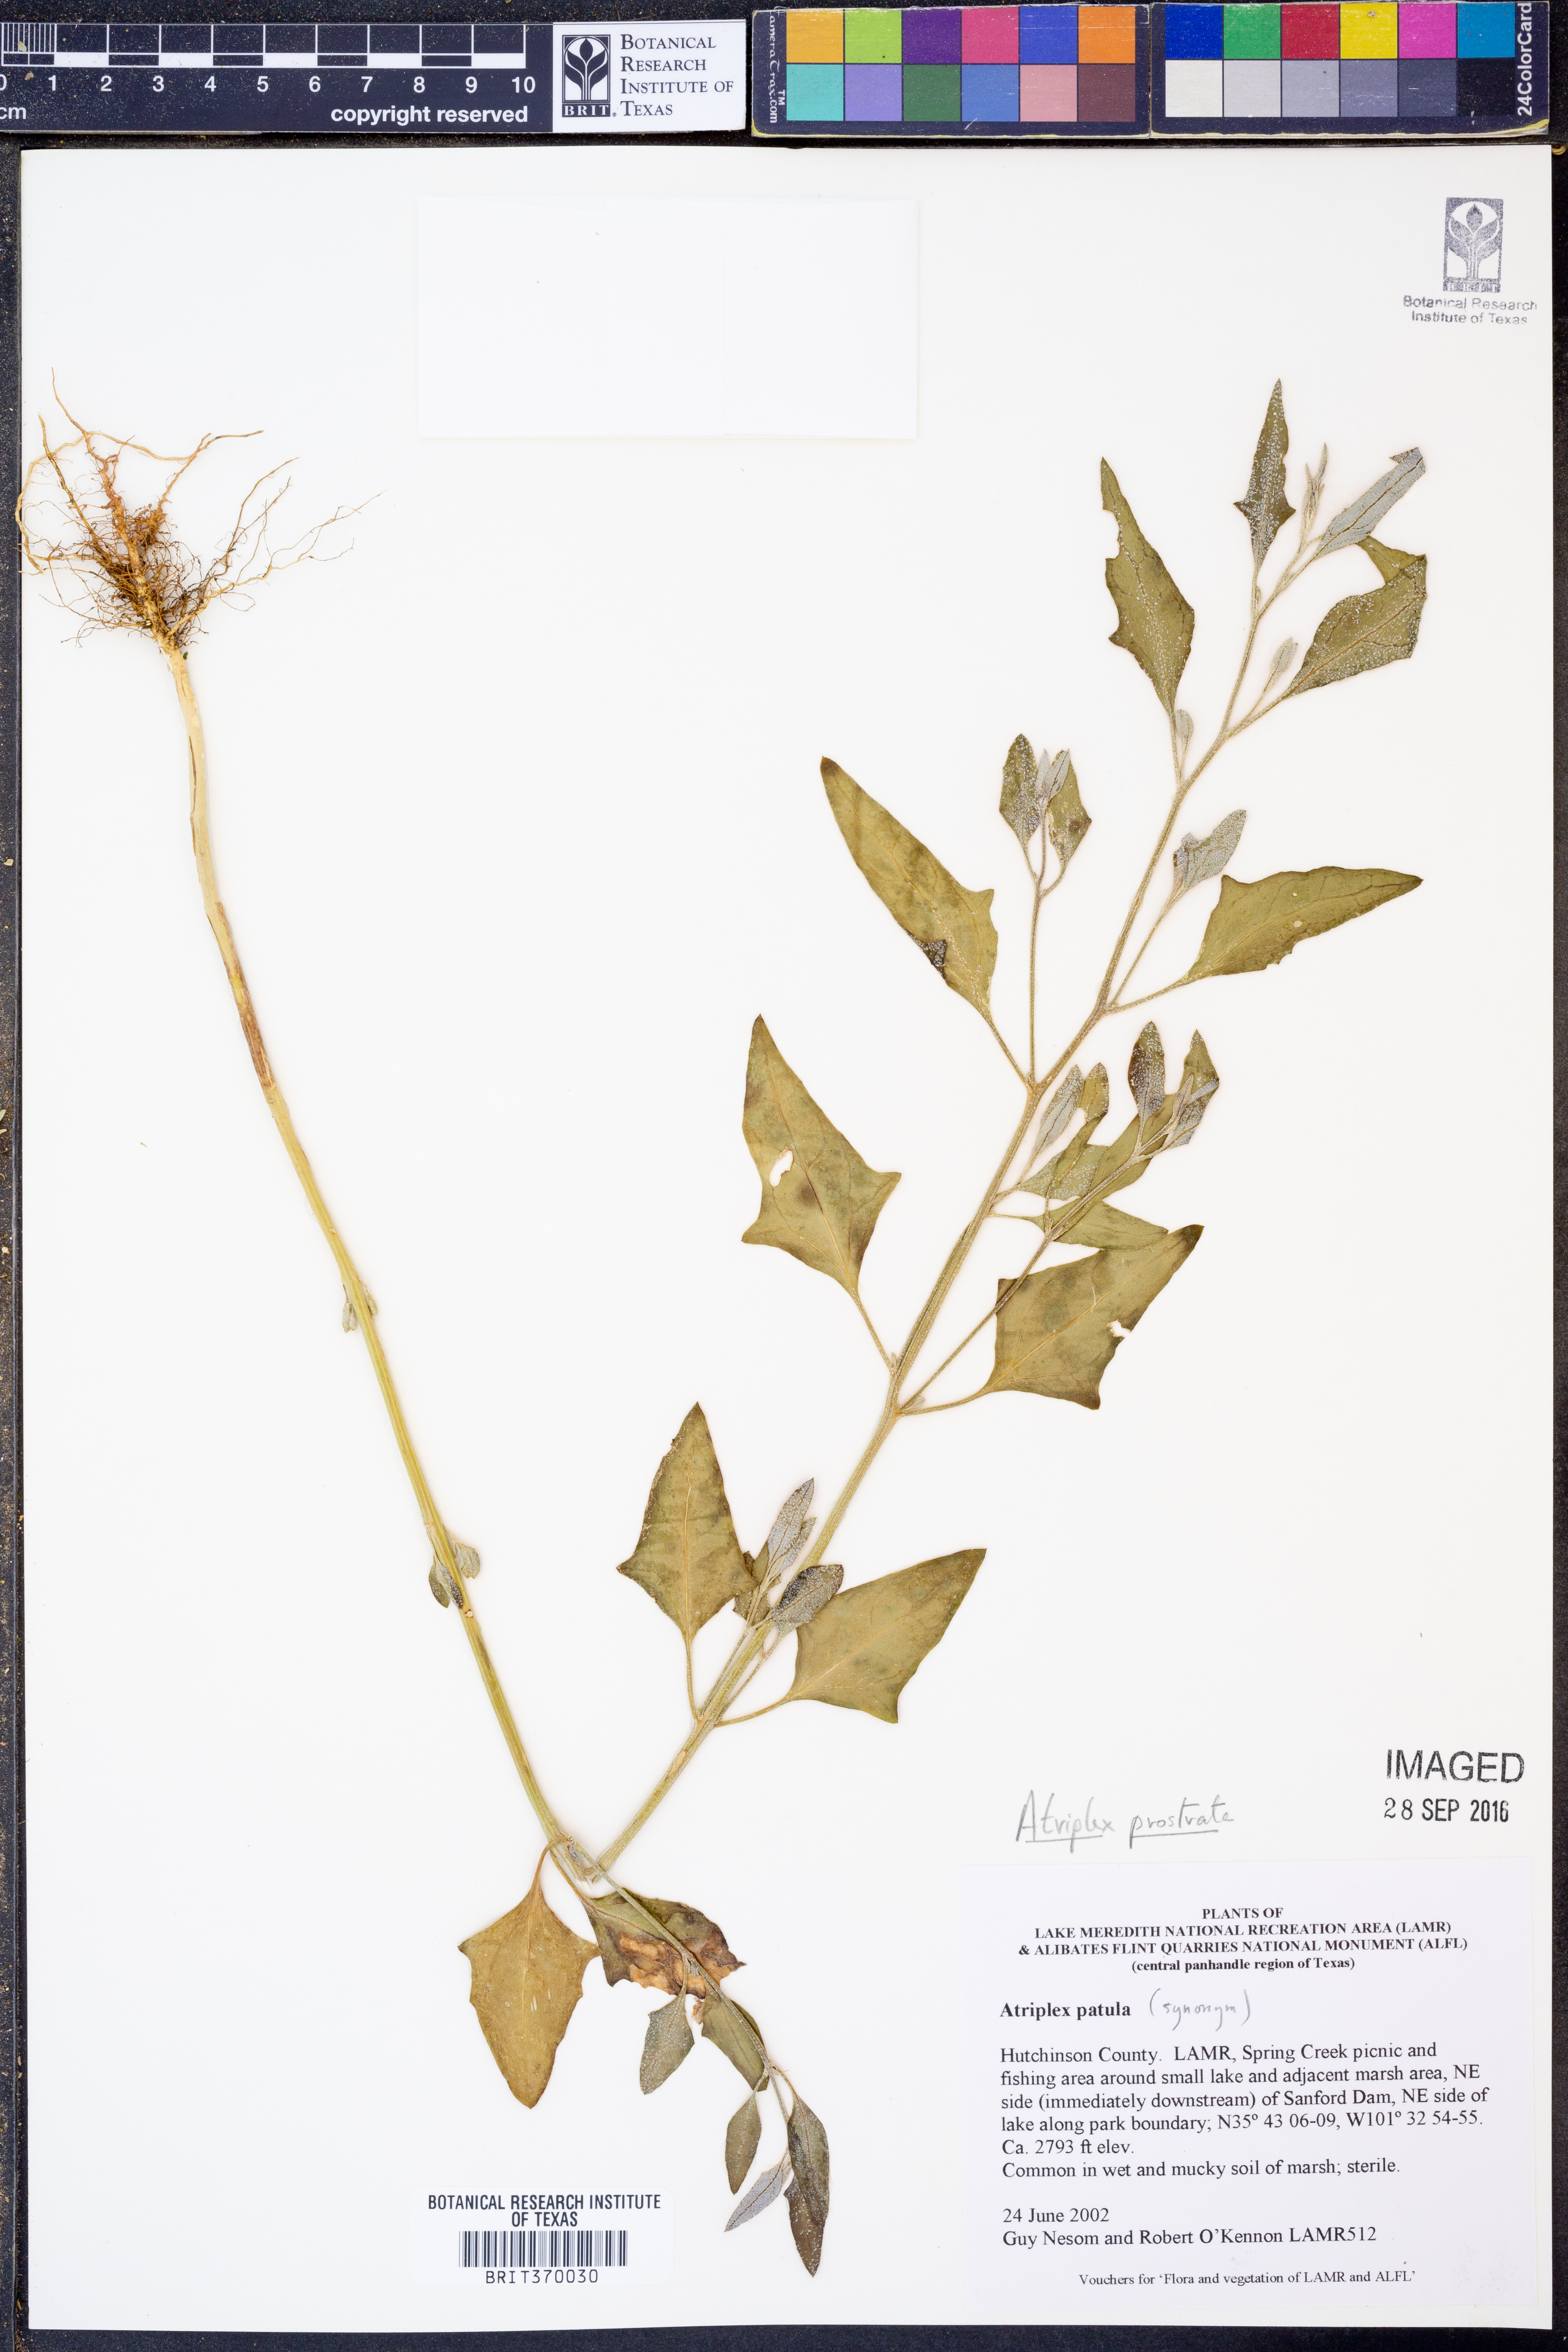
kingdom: Plantae
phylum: Tracheophyta
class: Magnoliopsida
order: Caryophyllales
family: Amaranthaceae
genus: Atriplex
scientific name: Atriplex prostrata
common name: Spear-leaved orache
